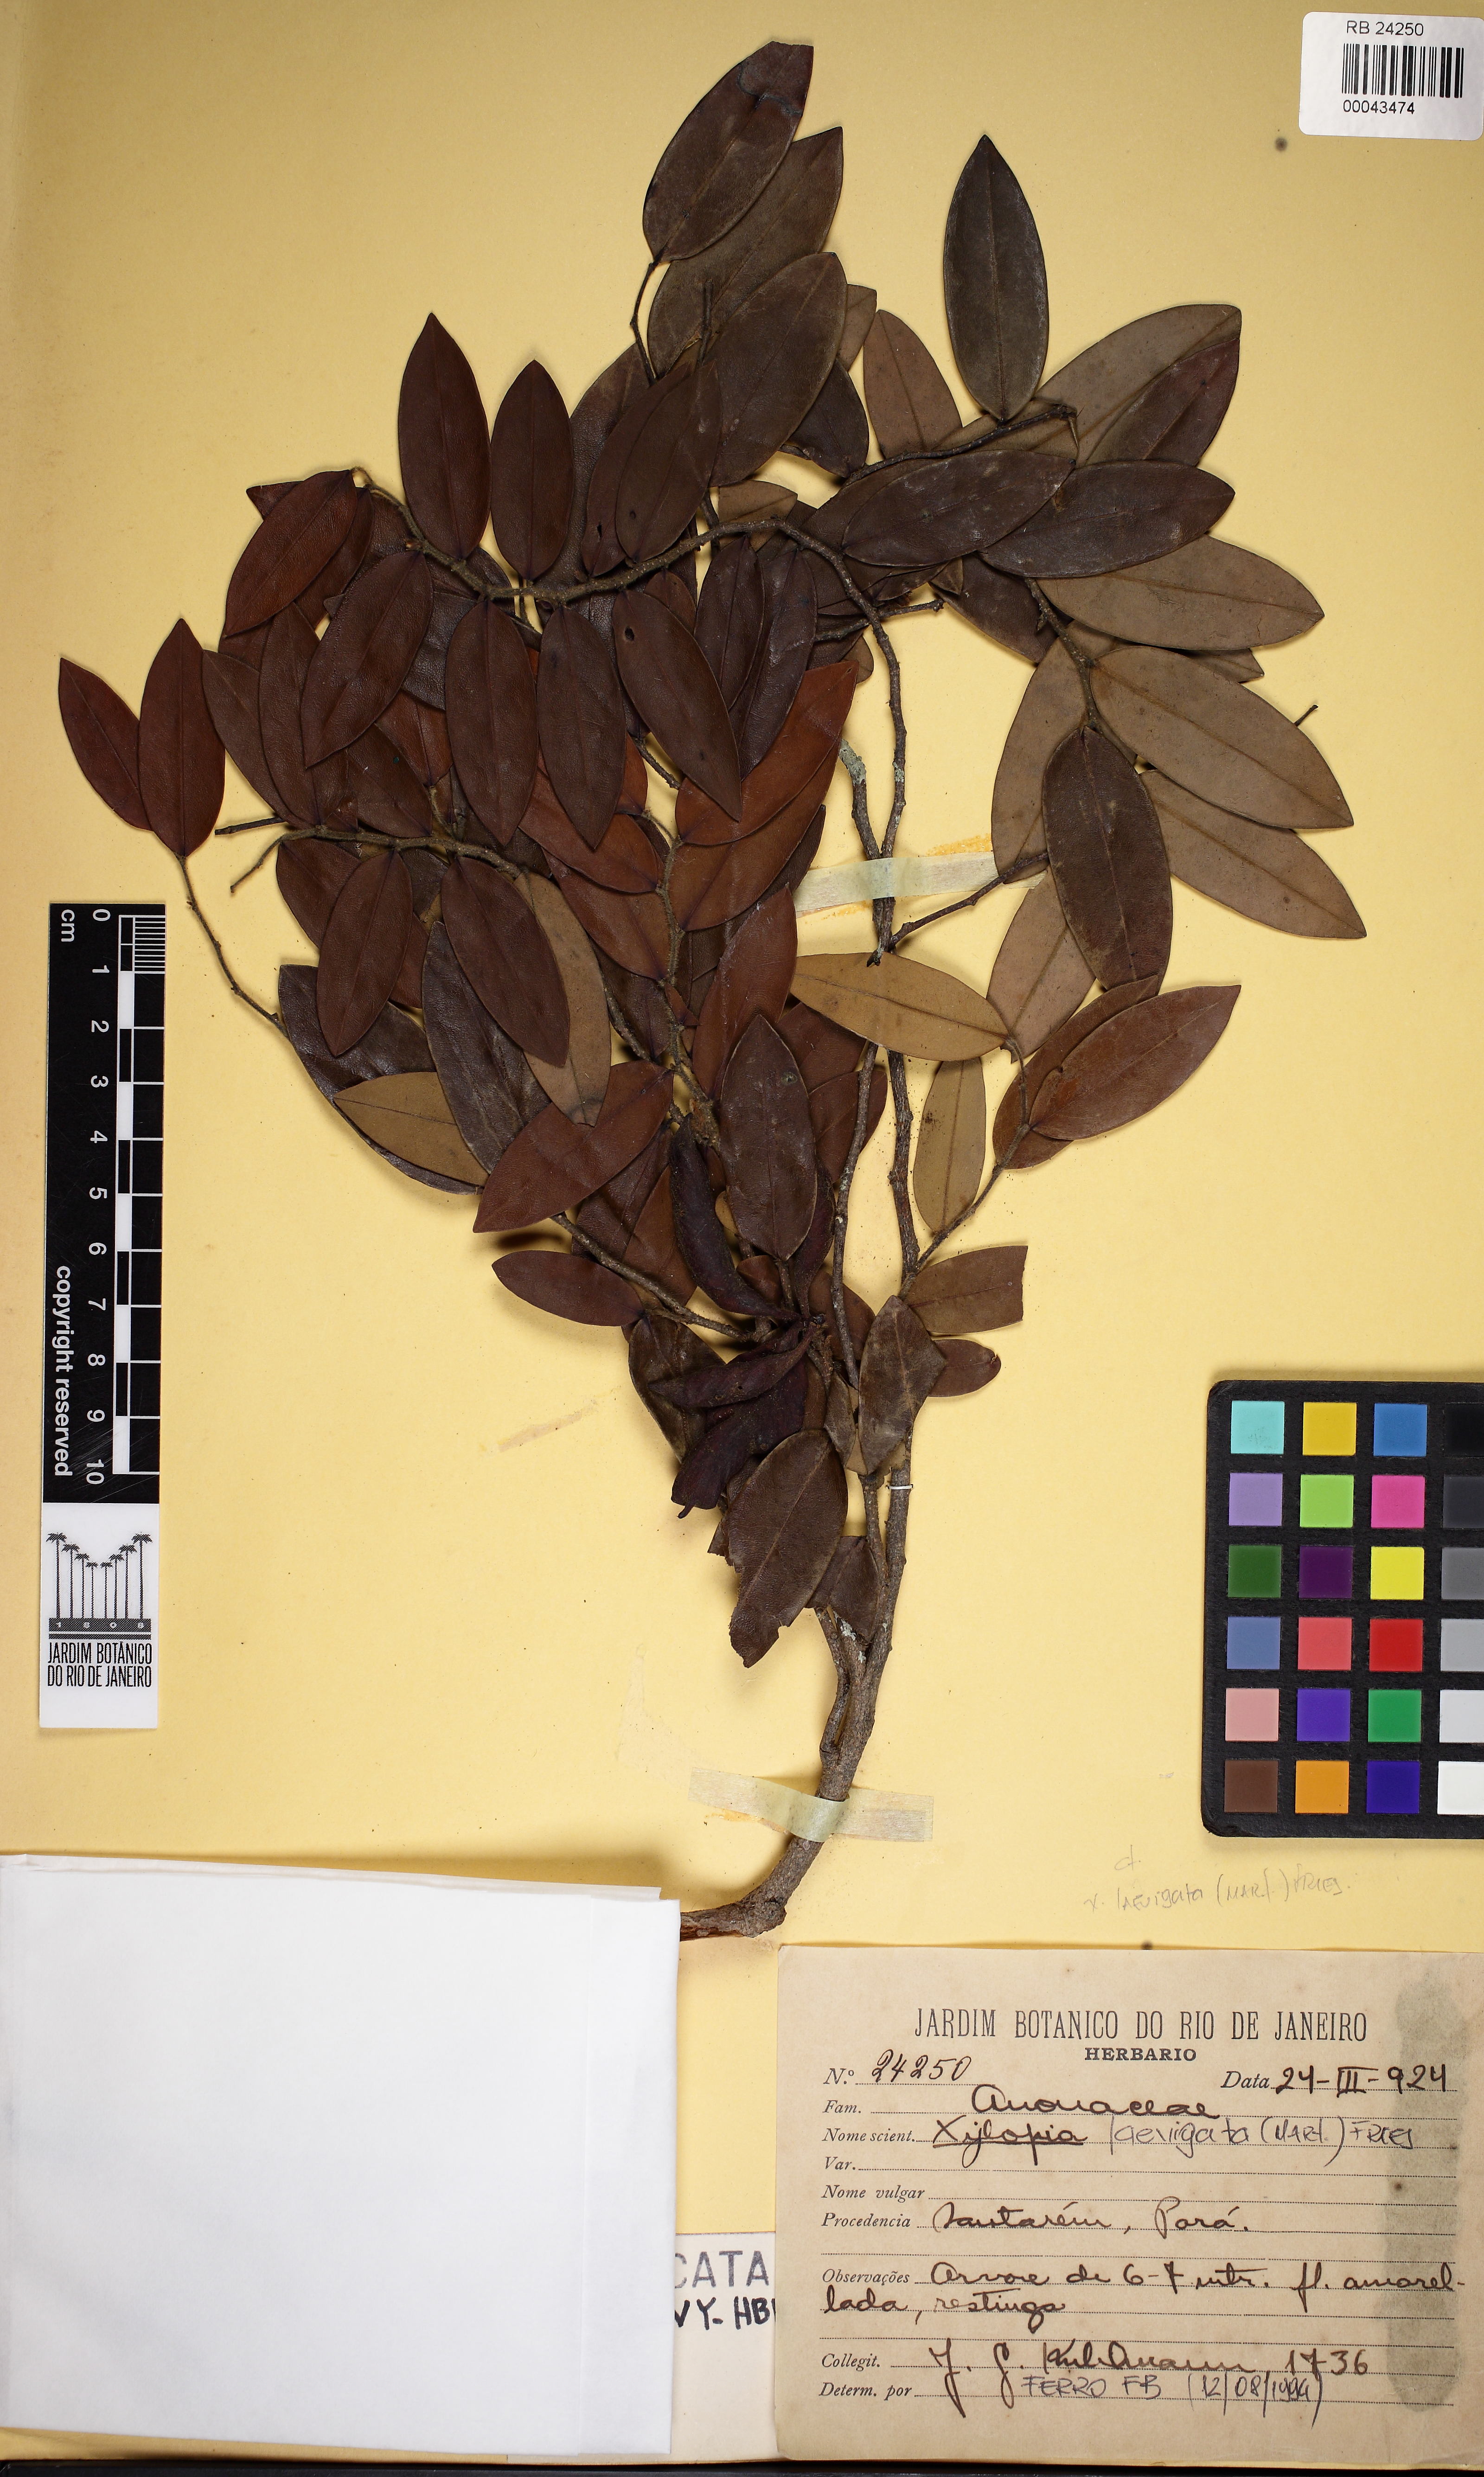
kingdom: Plantae
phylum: Tracheophyta
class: Magnoliopsida
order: Magnoliales
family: Annonaceae
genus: Xylopia
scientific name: Xylopia barbata
